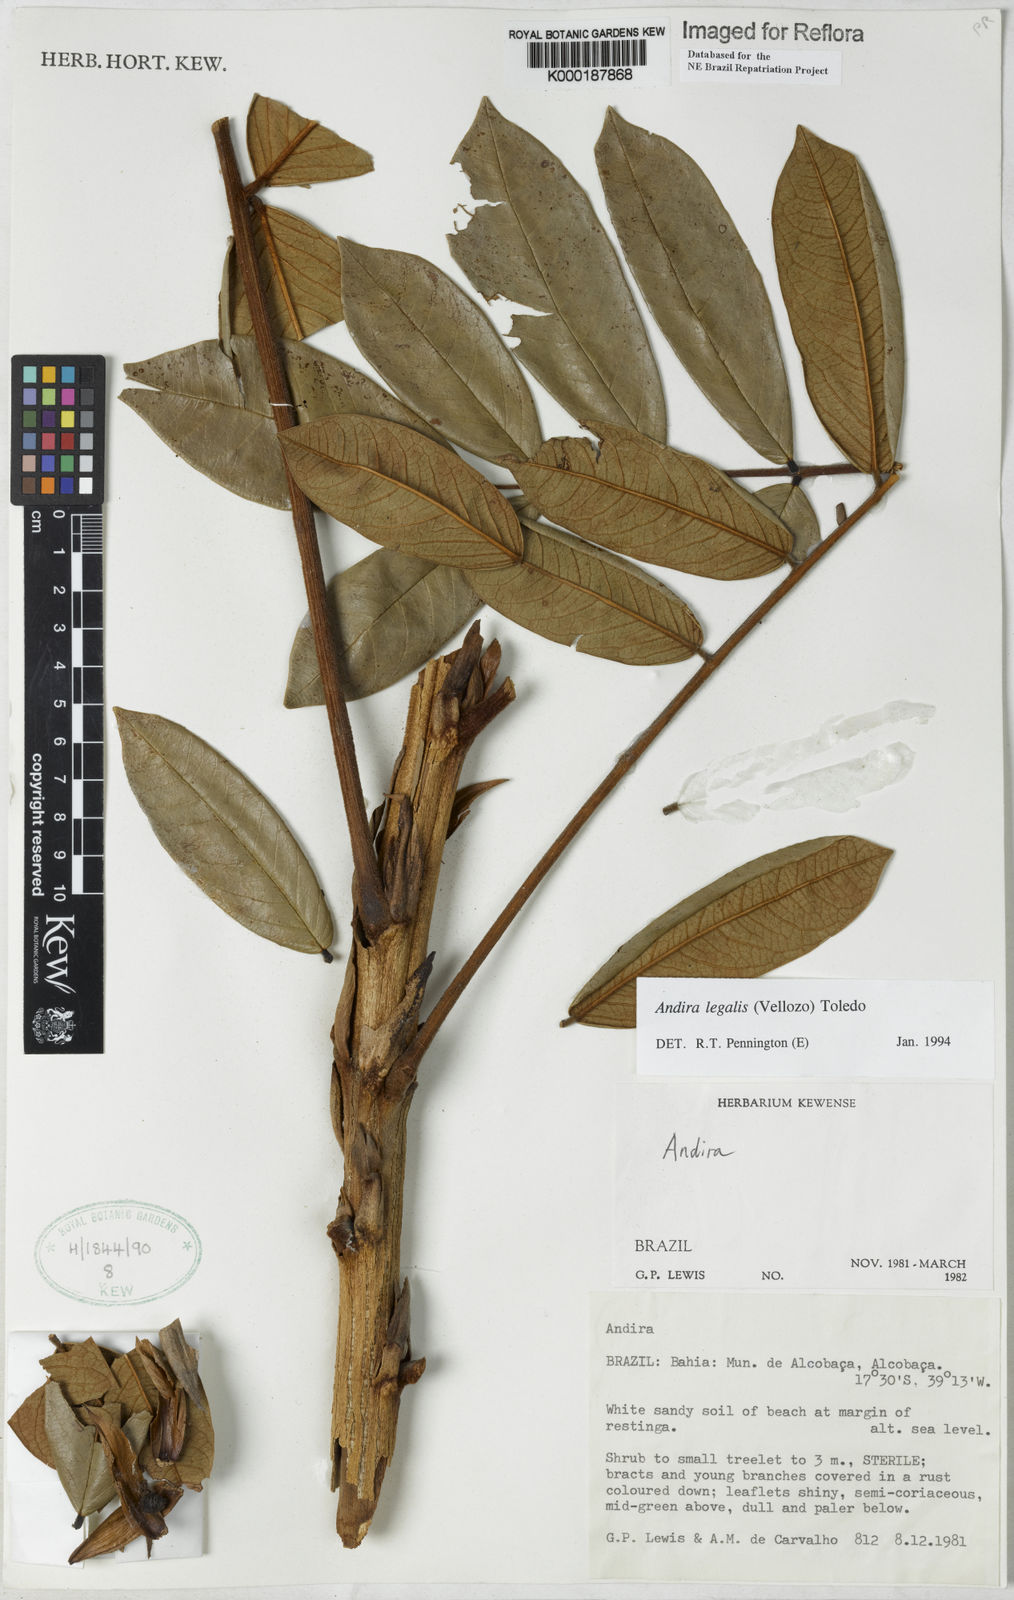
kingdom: Plantae
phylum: Tracheophyta
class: Magnoliopsida
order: Fabales
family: Fabaceae
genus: Andira
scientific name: Andira legalis
